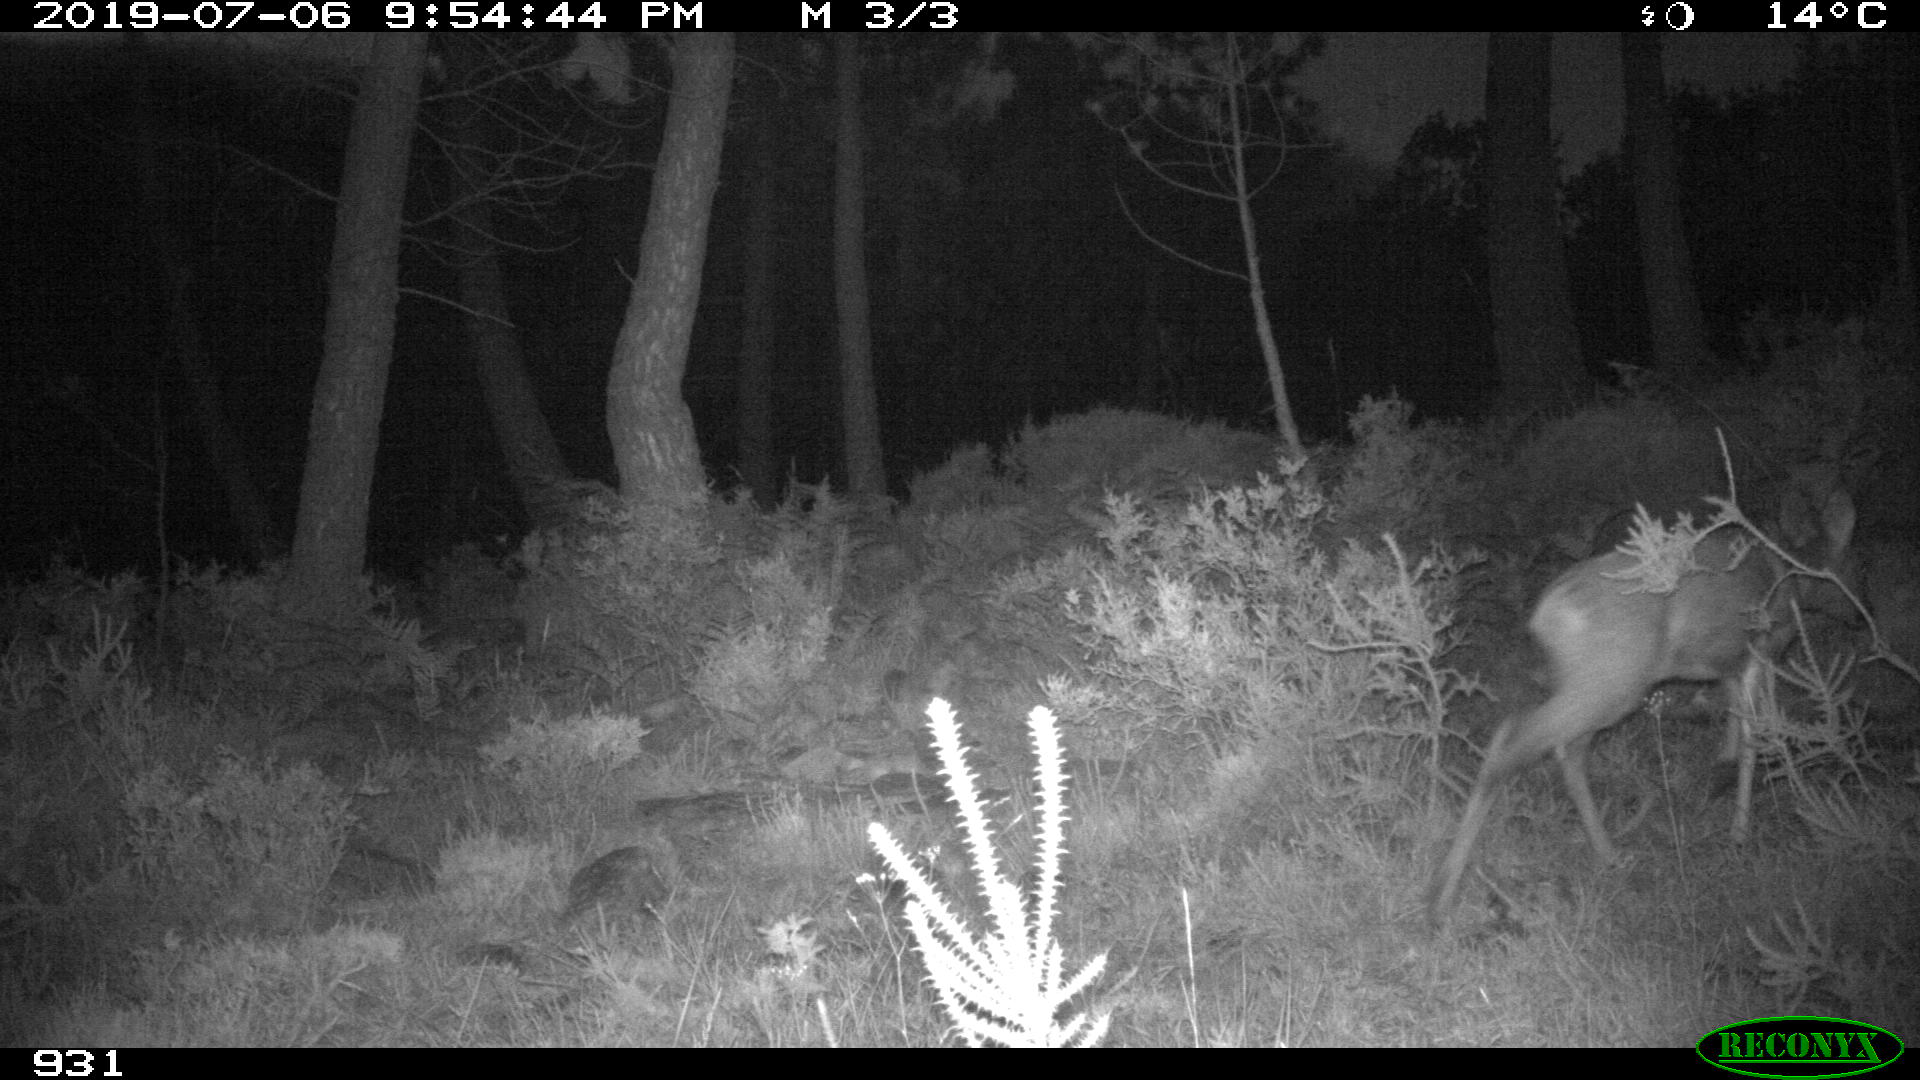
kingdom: Animalia
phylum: Chordata
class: Mammalia
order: Artiodactyla
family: Cervidae
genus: Capreolus
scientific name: Capreolus capreolus
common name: Western roe deer
